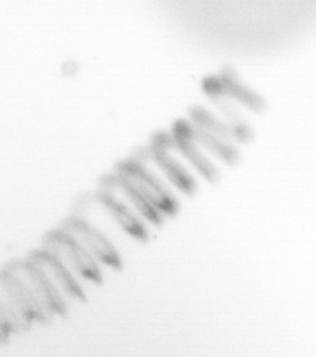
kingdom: Chromista
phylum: Ochrophyta
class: Bacillariophyceae
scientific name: Bacillariophyceae
